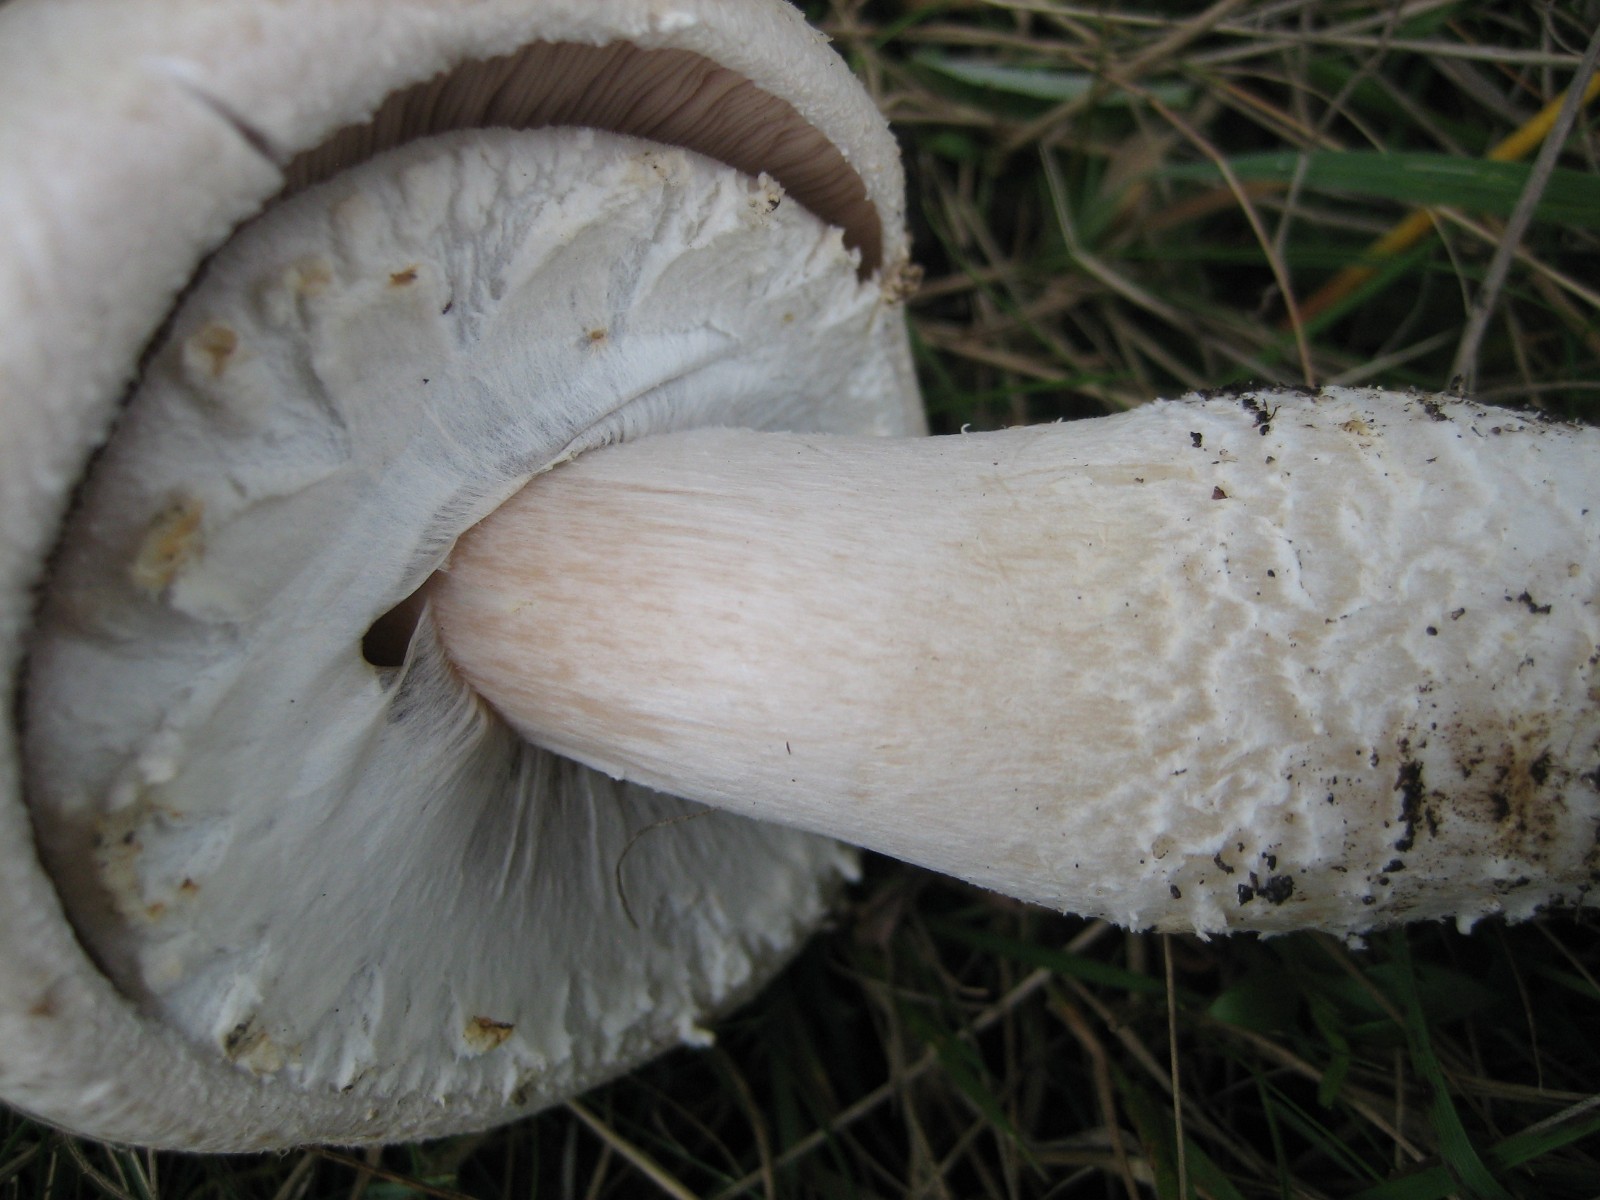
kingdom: Fungi
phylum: Basidiomycota
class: Agaricomycetes
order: Agaricales
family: Agaricaceae
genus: Agaricus
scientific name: Agaricus
